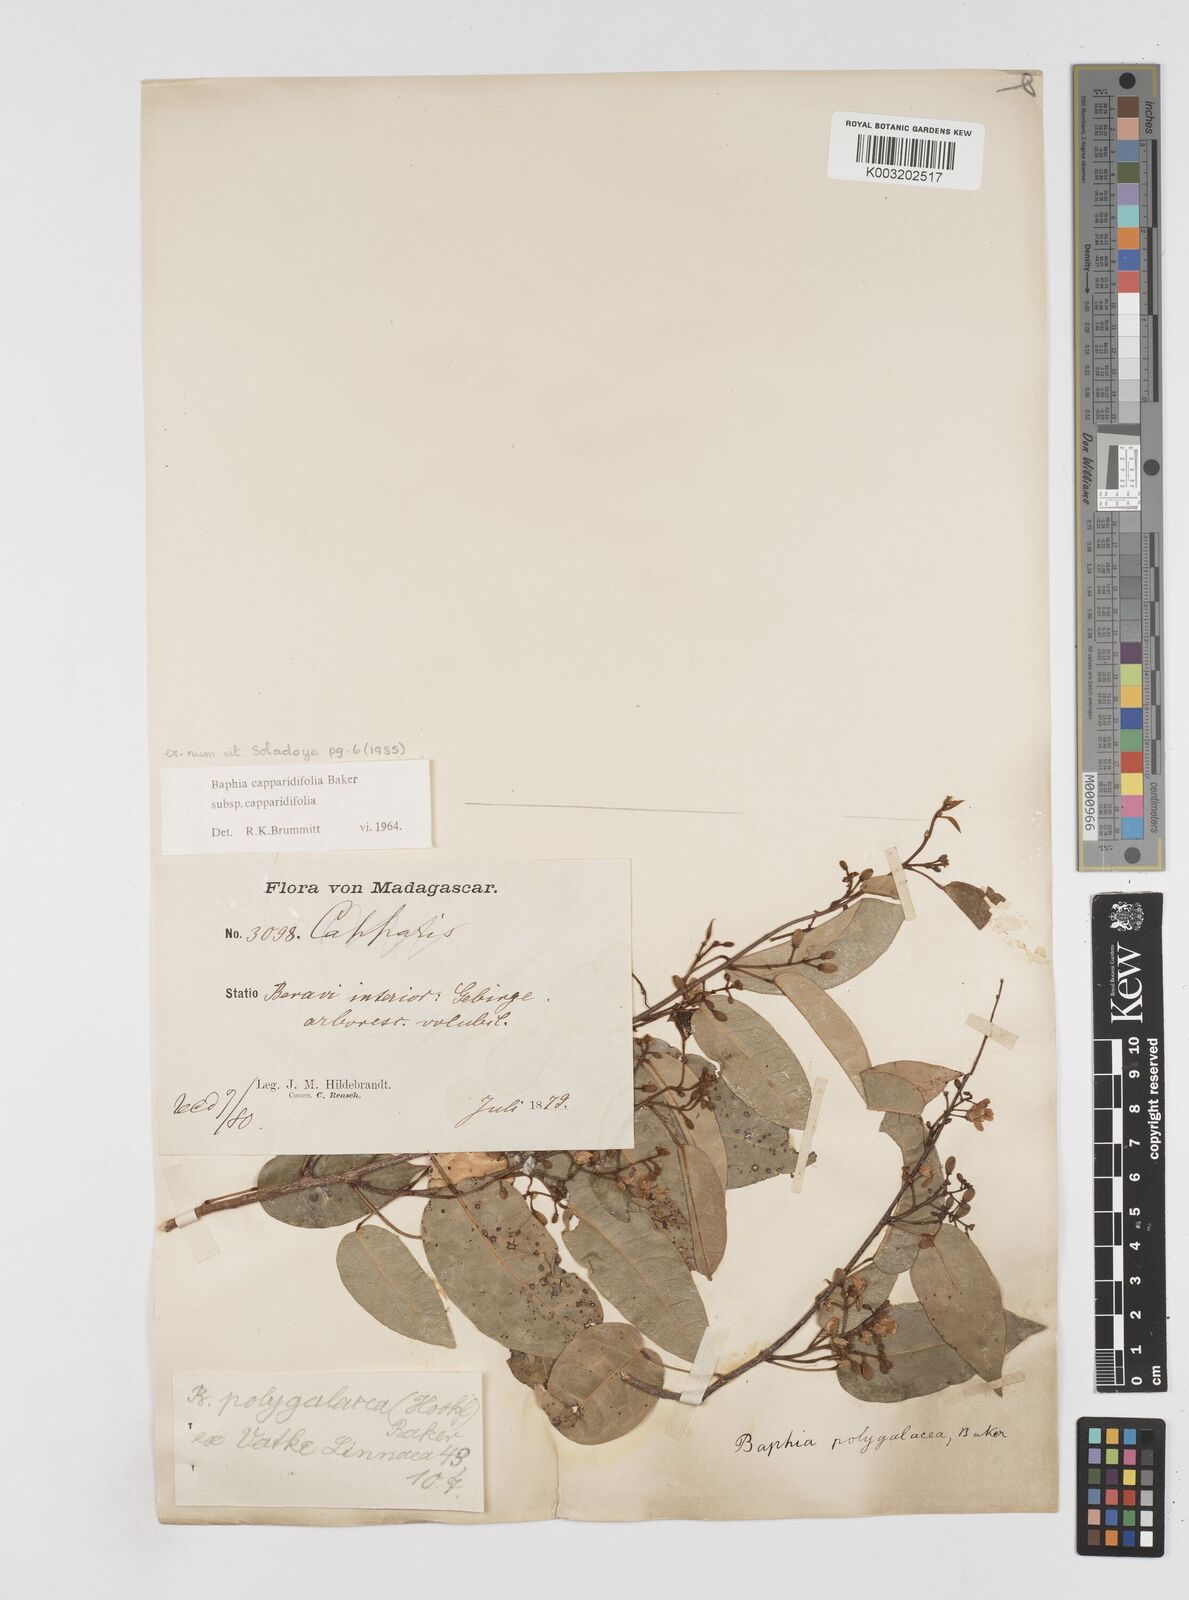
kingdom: Plantae
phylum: Tracheophyta
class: Magnoliopsida
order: Fabales
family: Fabaceae
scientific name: Fabaceae
